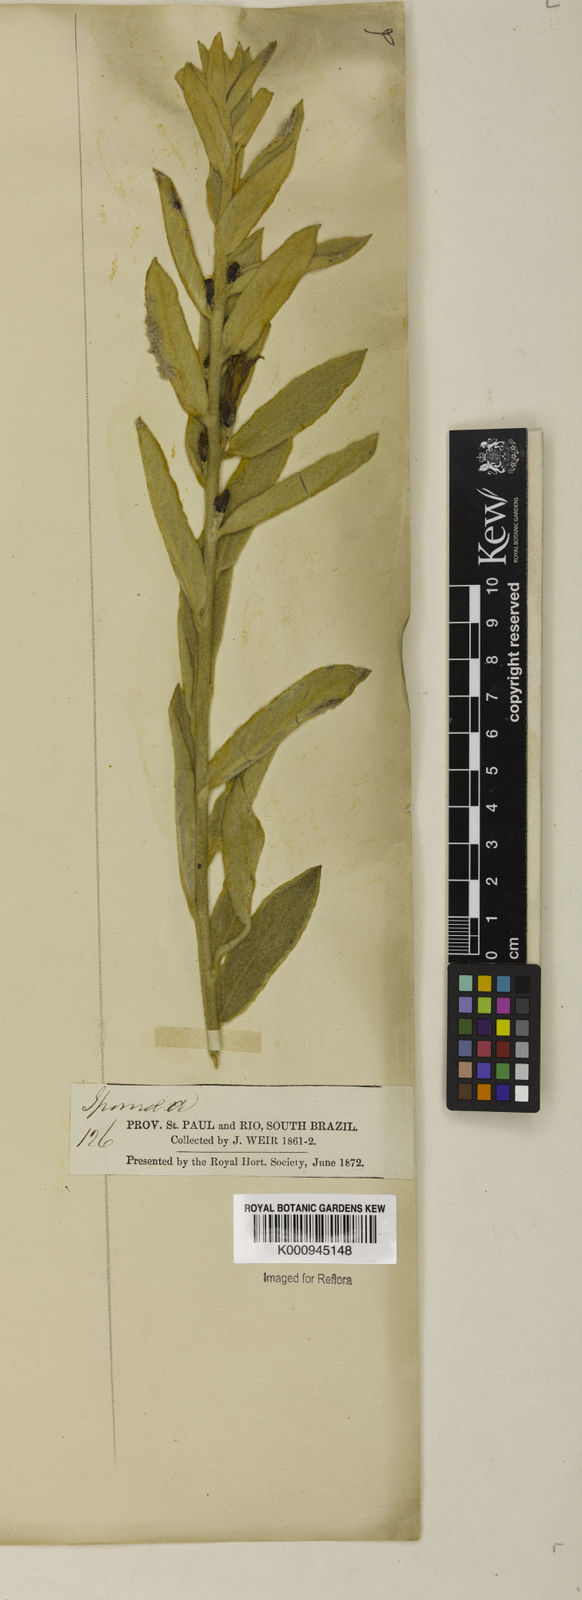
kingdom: Plantae
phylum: Tracheophyta
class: Magnoliopsida
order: Solanales
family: Convolvulaceae
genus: Distimake
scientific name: Distimake tomentosus
